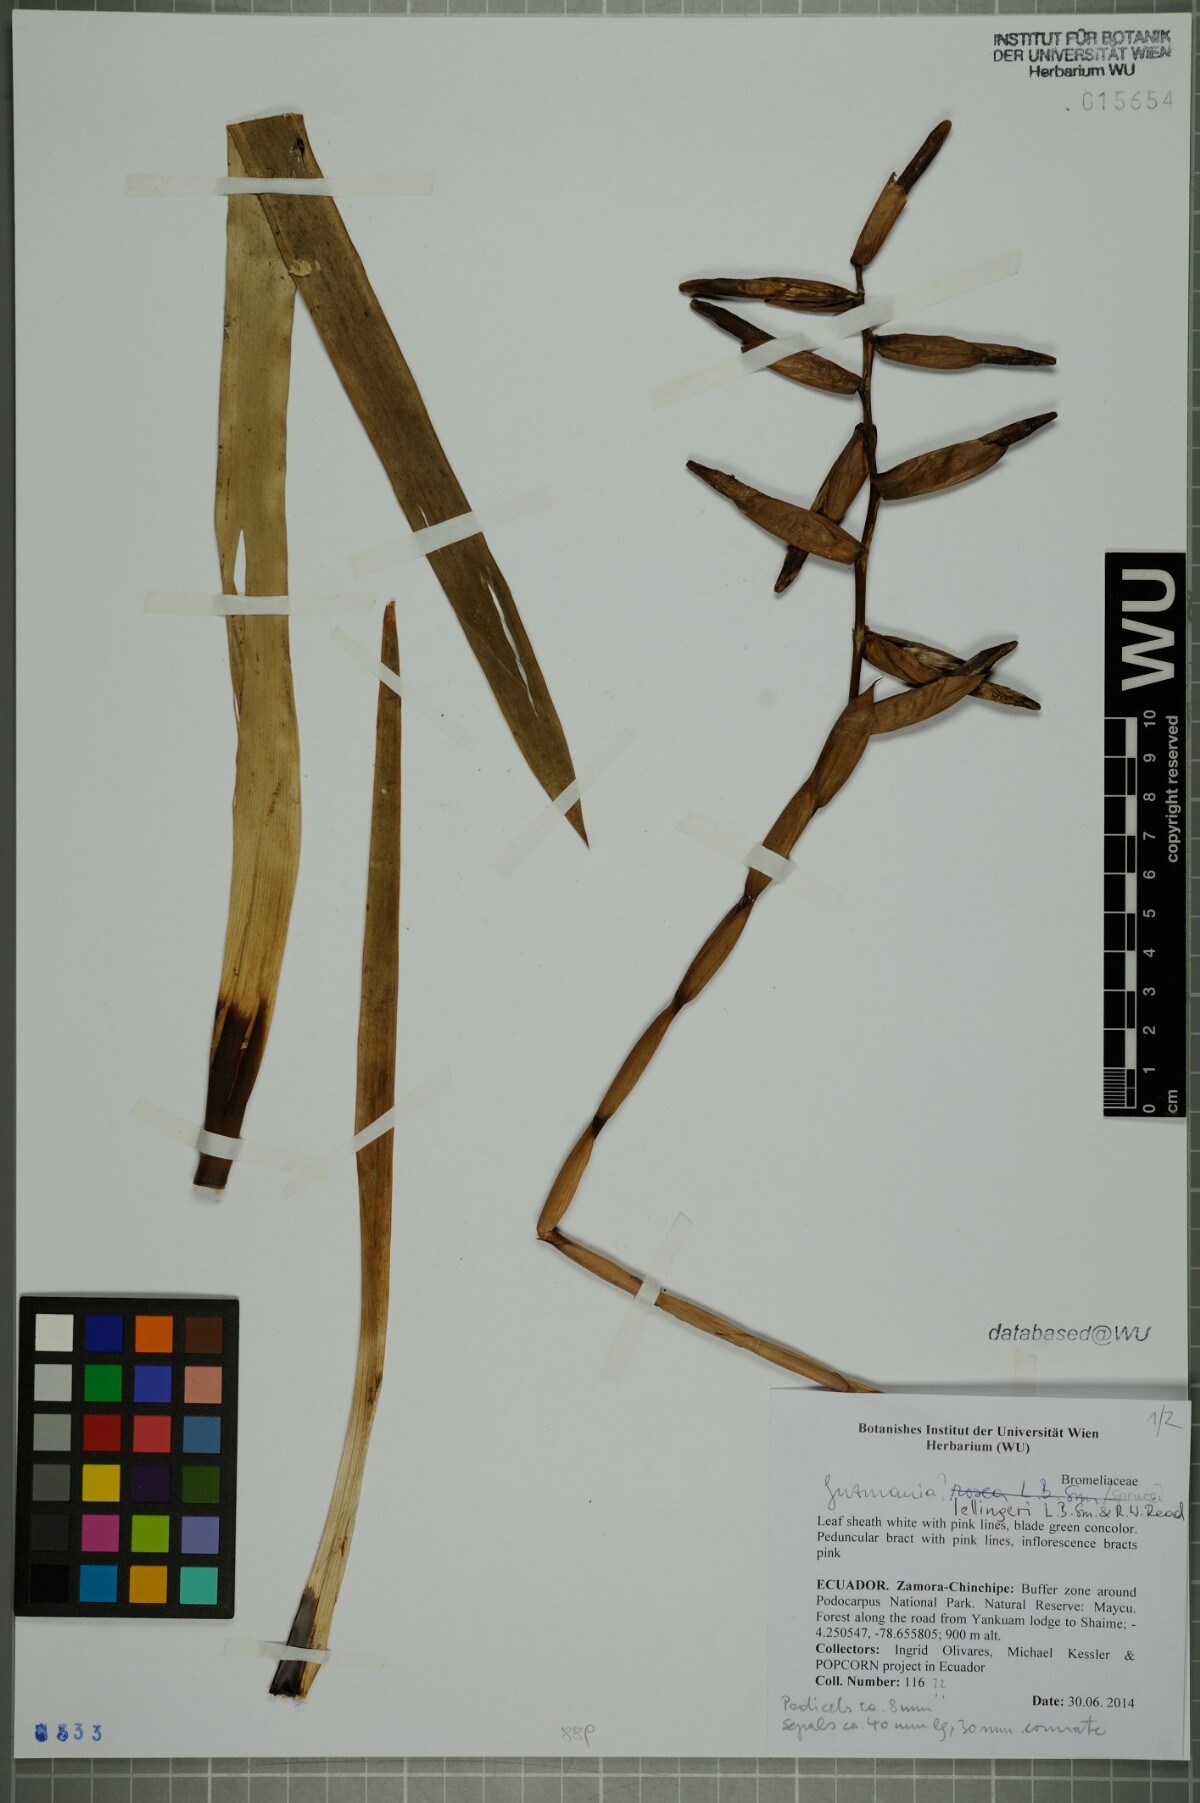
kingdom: Plantae
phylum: Tracheophyta
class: Liliopsida
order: Poales
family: Bromeliaceae
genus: Guzmania
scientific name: Guzmania sprucei
